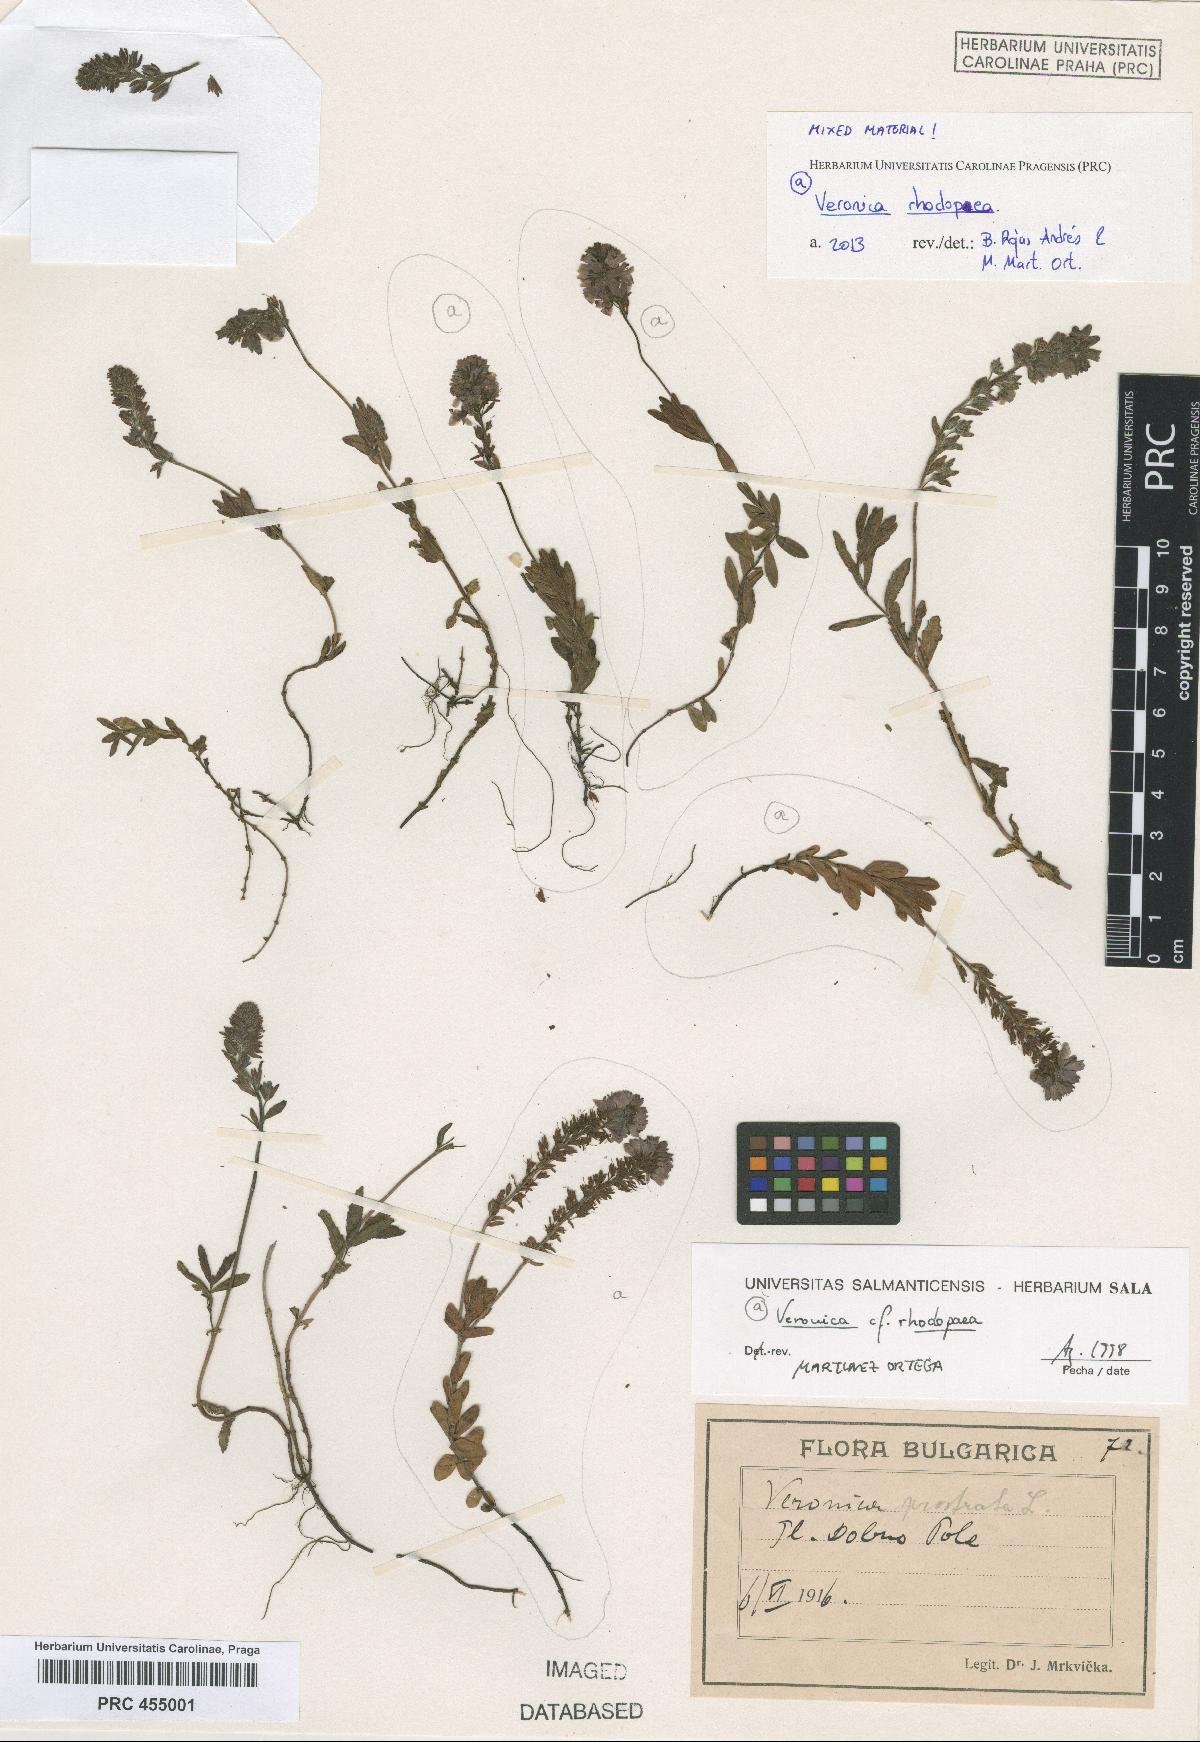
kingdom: Plantae
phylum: Tracheophyta
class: Magnoliopsida
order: Lamiales
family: Plantaginaceae
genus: Veronica
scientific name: Veronica rhodopaea
